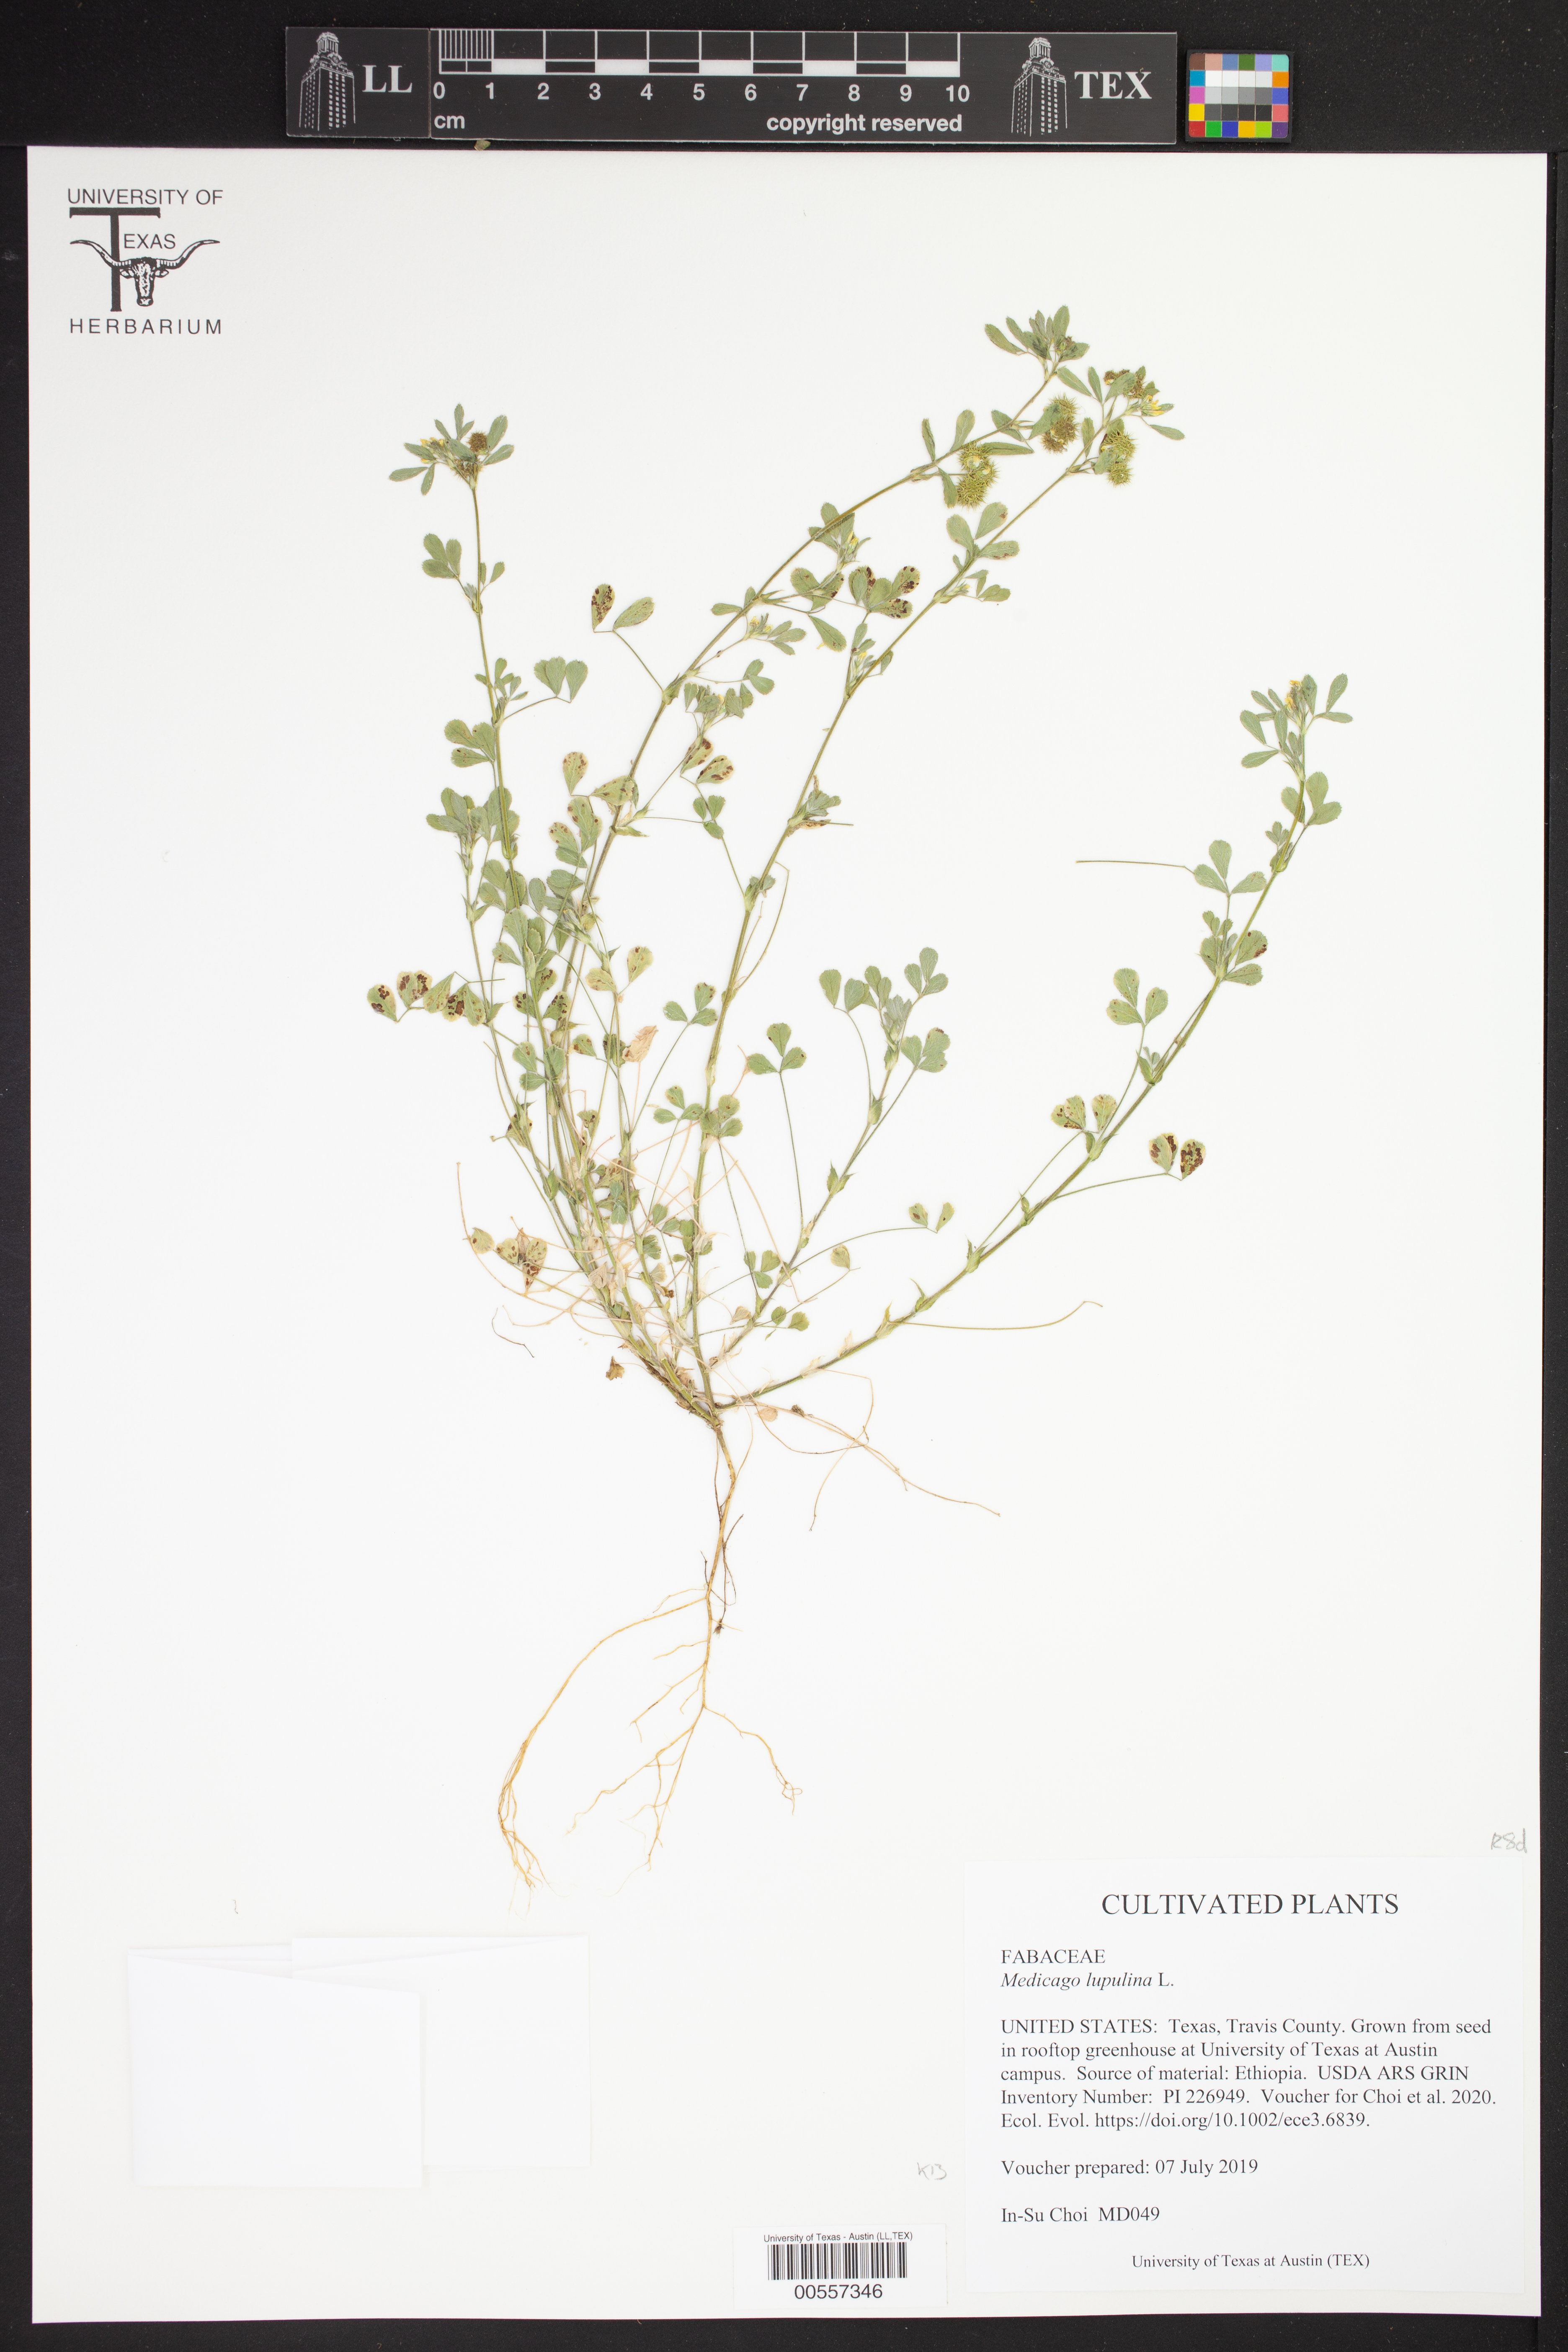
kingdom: Plantae
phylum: Tracheophyta
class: Magnoliopsida
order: Fabales
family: Fabaceae
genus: Medicago
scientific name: Medicago lupulina
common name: Black medick
